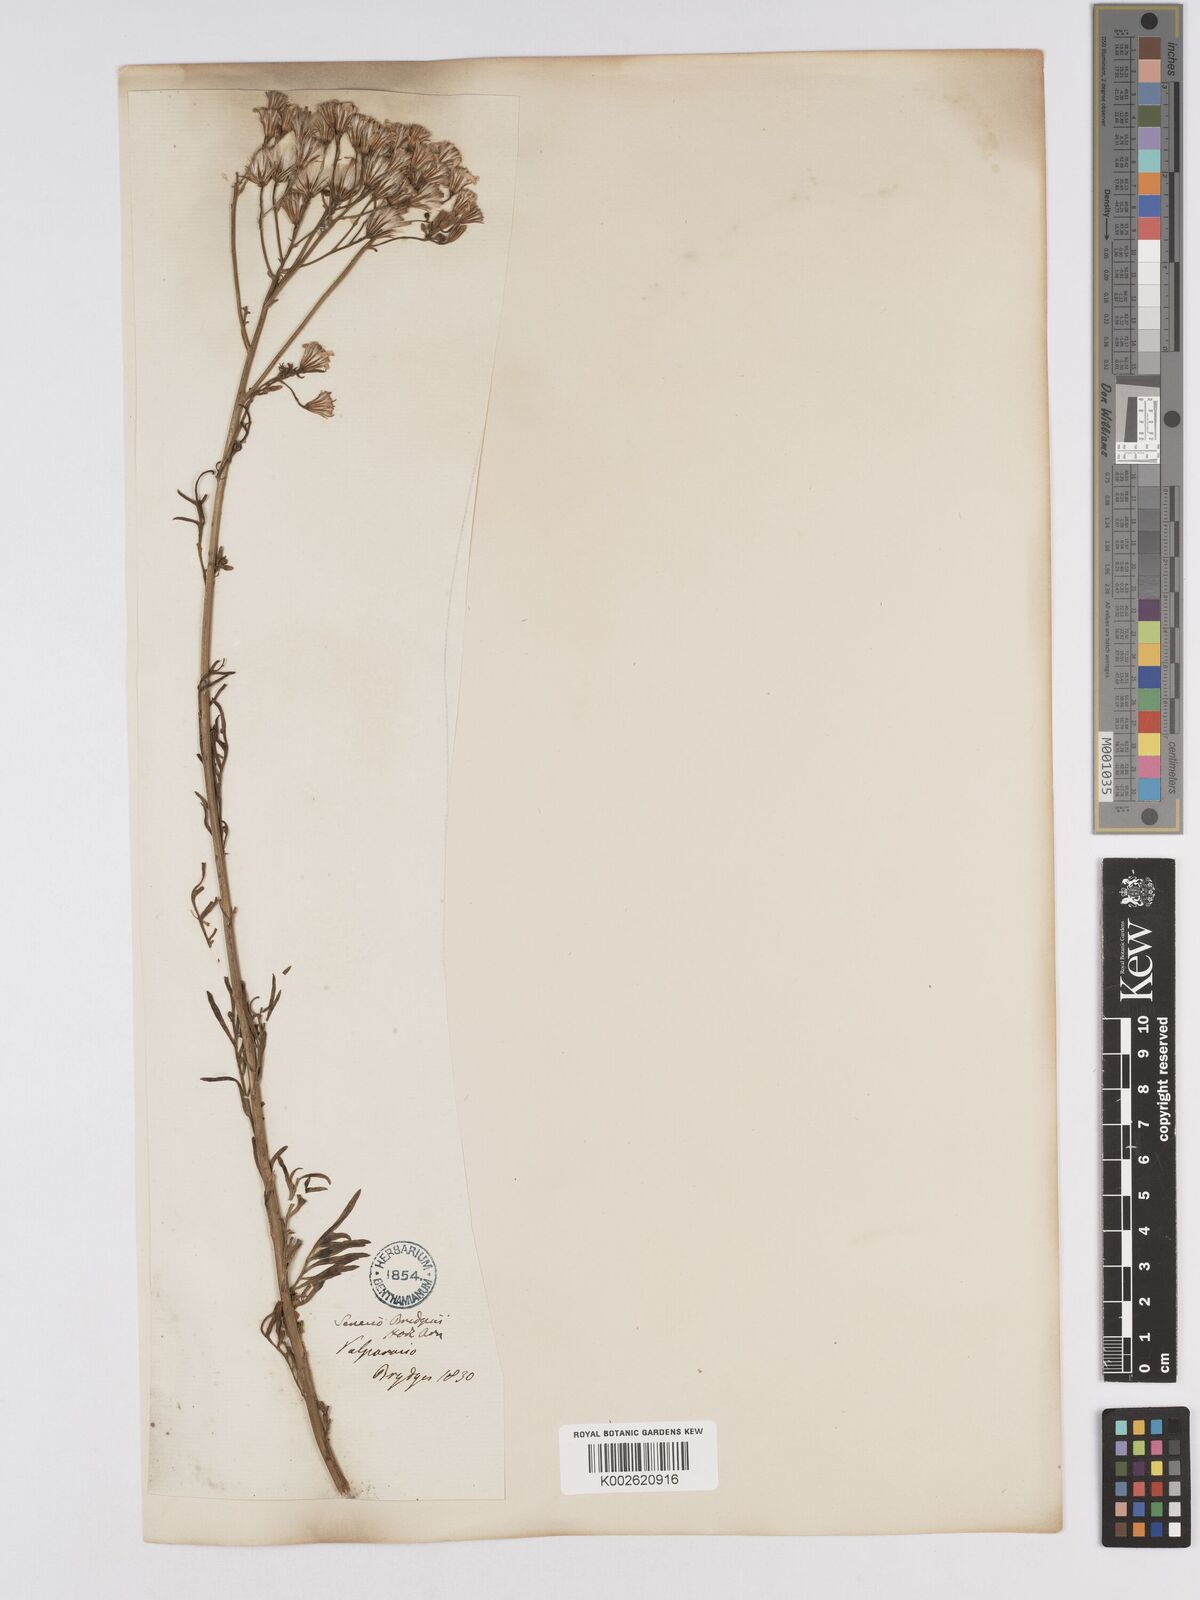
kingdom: Plantae
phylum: Tracheophyta
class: Magnoliopsida
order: Asterales
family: Asteraceae
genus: Senecio
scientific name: Senecio bridgesii
